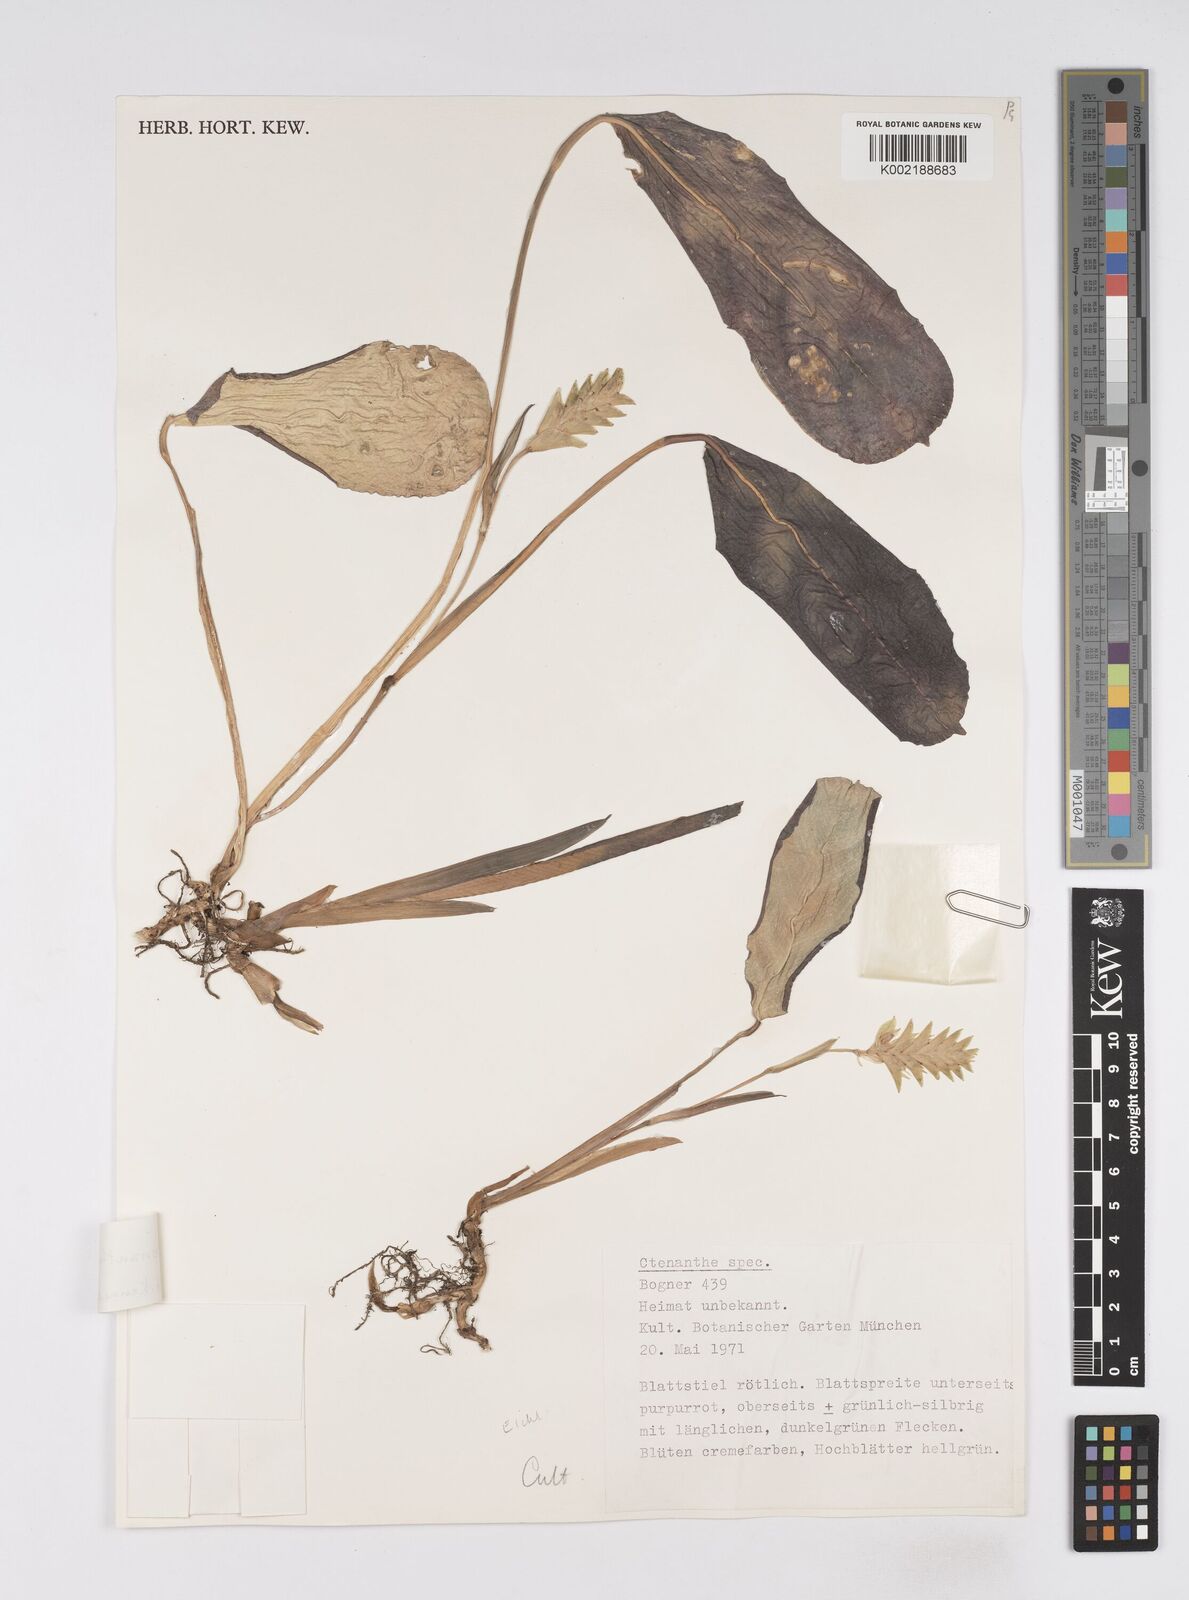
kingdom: Plantae
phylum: Tracheophyta
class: Liliopsida
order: Zingiberales
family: Marantaceae
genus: Ctenanthe
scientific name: Ctenanthe burle-marxii
